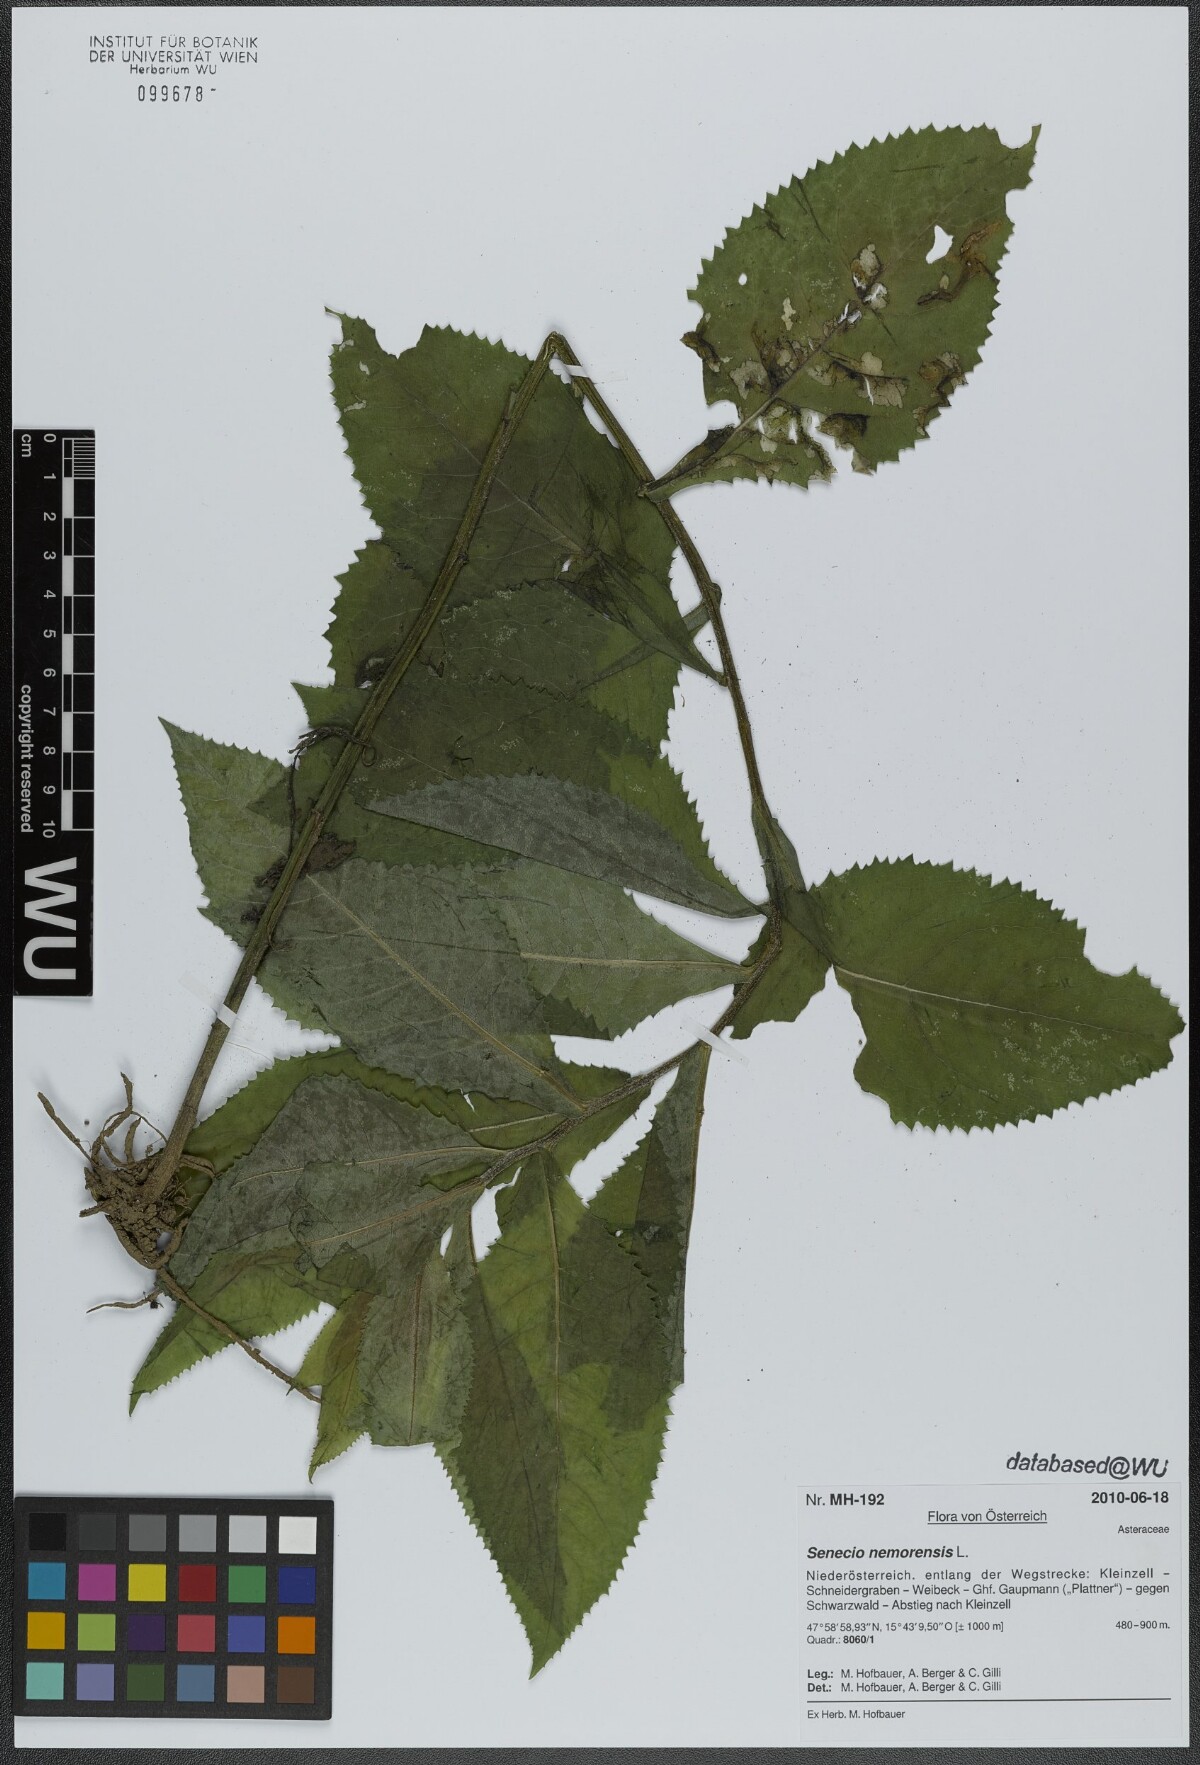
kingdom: Plantae
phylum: Tracheophyta
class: Magnoliopsida
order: Asterales
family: Asteraceae
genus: Senecio
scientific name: Senecio nemorensis
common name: Alpine ragwort
